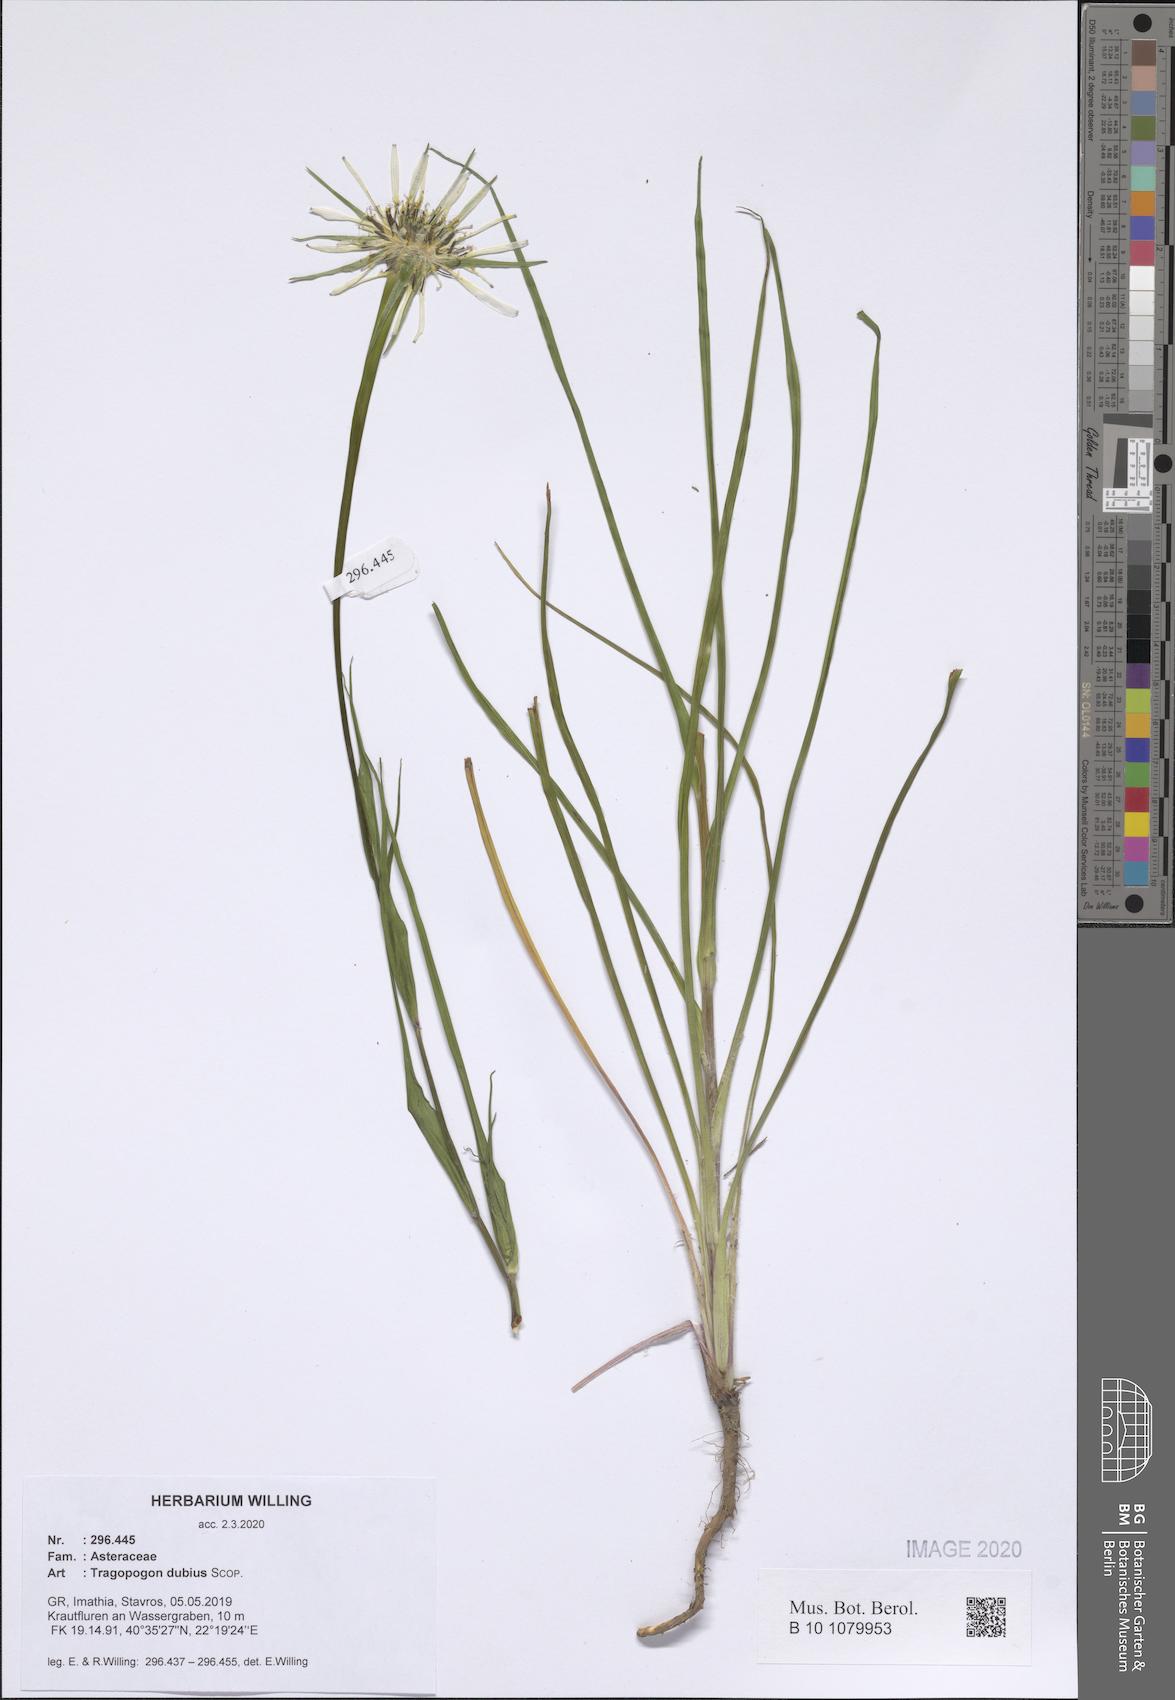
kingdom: Plantae
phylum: Tracheophyta
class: Magnoliopsida
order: Asterales
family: Asteraceae
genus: Tragopogon
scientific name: Tragopogon dubius
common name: Yellow salsify
